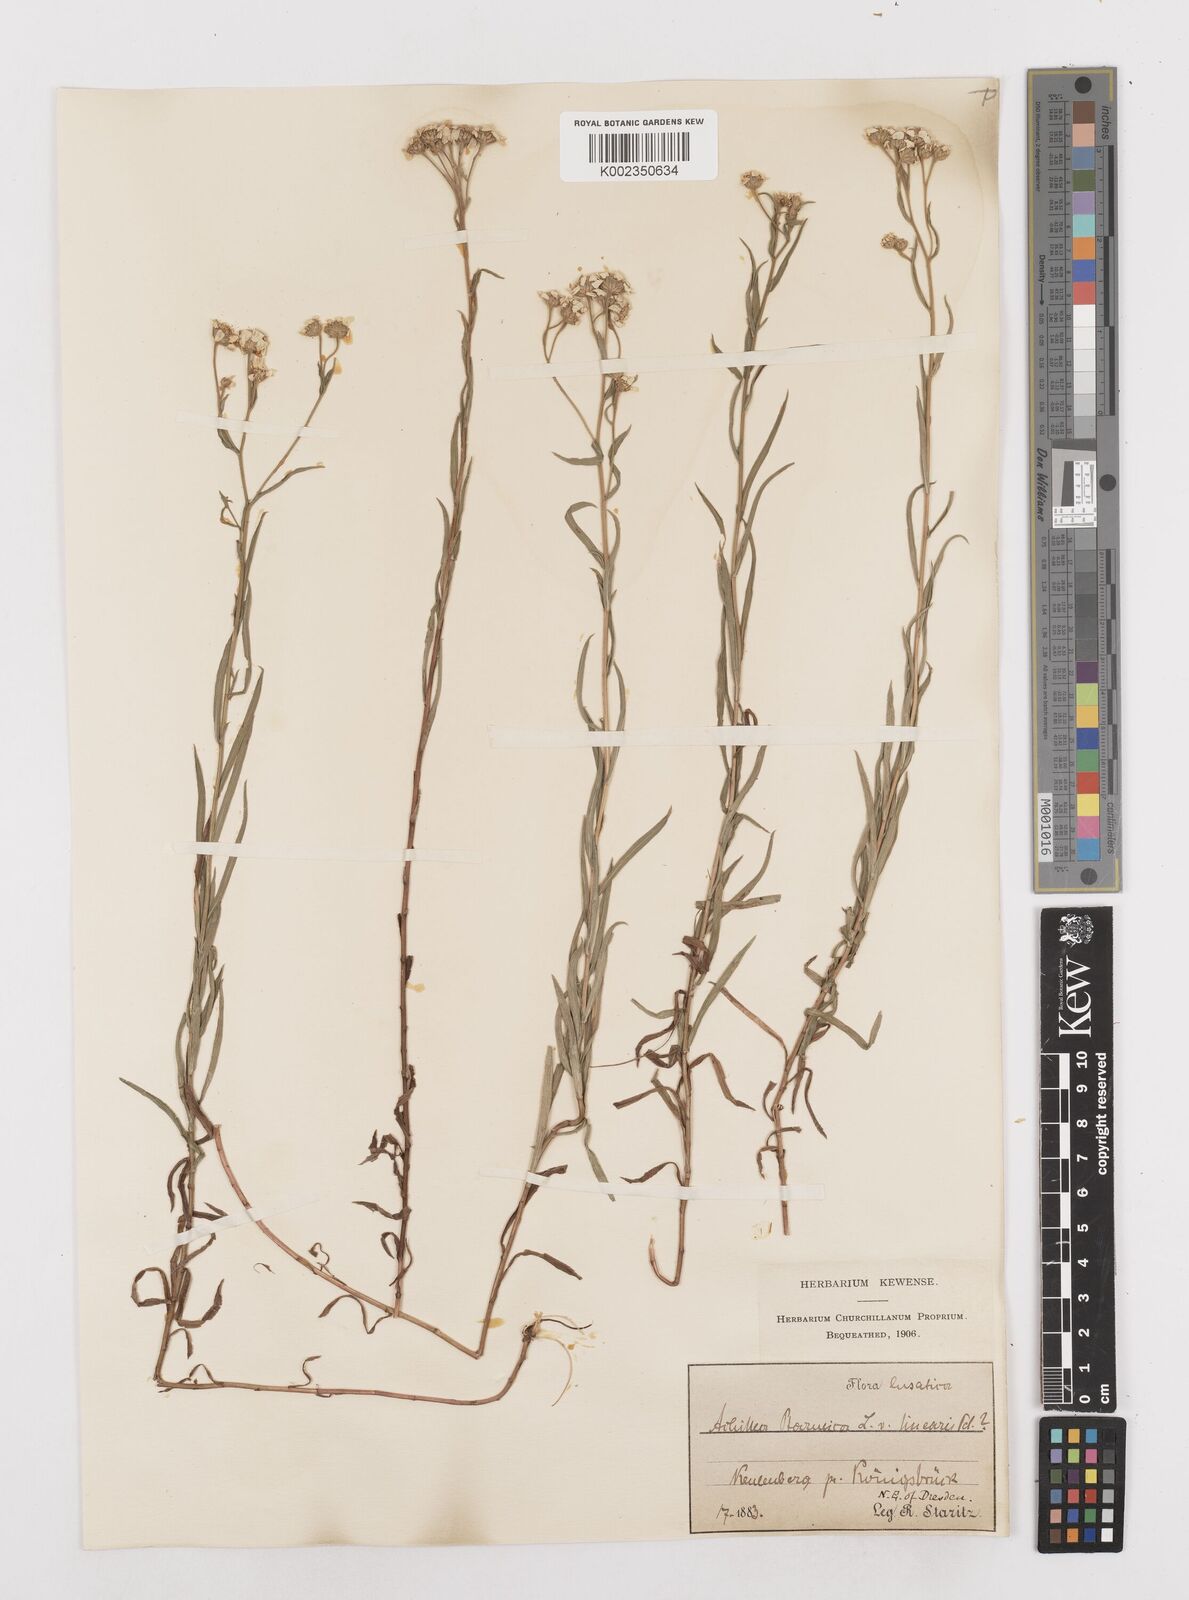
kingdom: Plantae
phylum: Tracheophyta
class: Magnoliopsida
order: Asterales
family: Asteraceae
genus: Achillea
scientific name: Achillea ptarmica
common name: Sneezeweed
